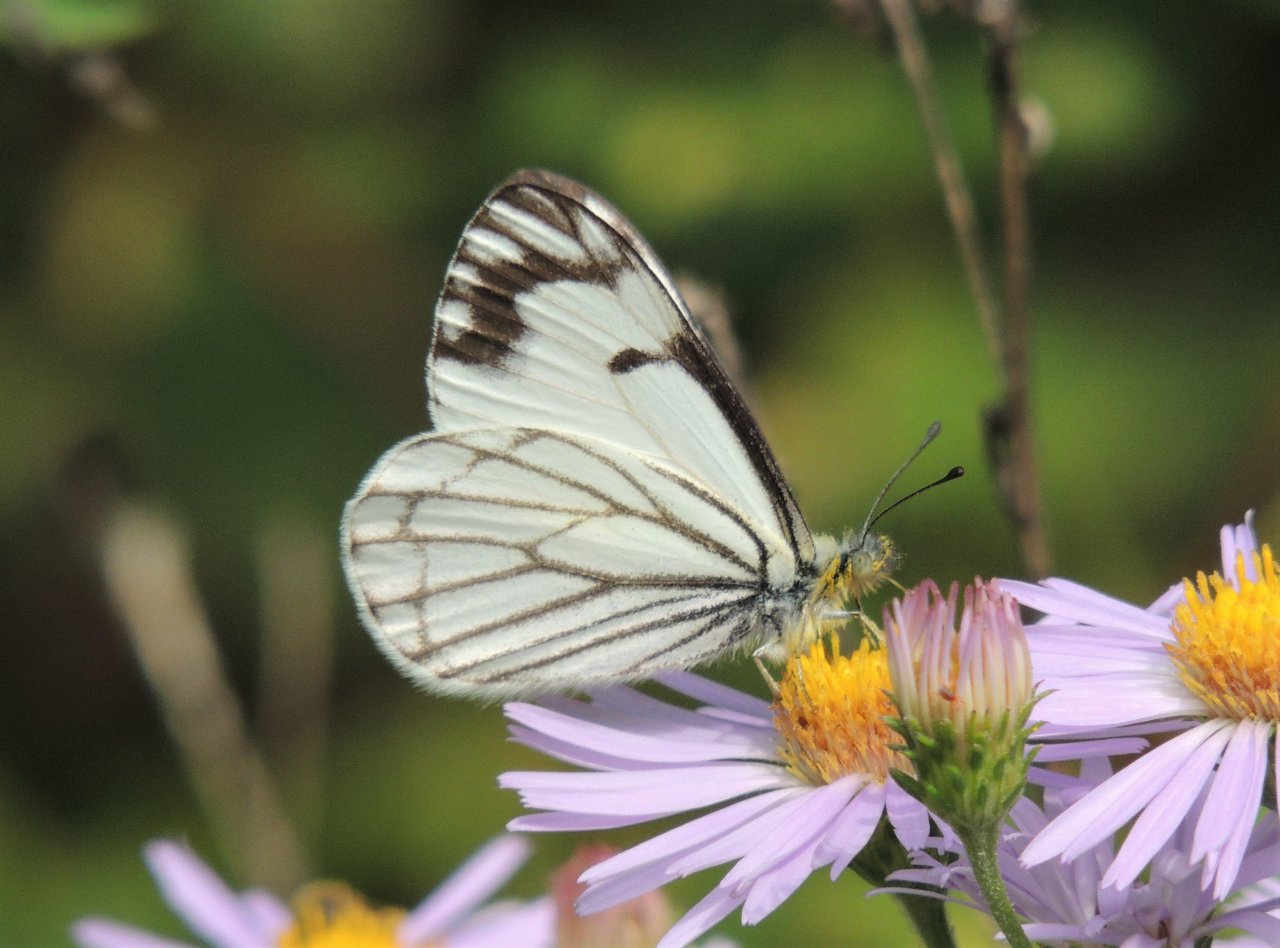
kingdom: Animalia
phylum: Arthropoda
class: Insecta
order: Lepidoptera
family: Pieridae
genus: Neophasia
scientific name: Neophasia menapia
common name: Pine White
